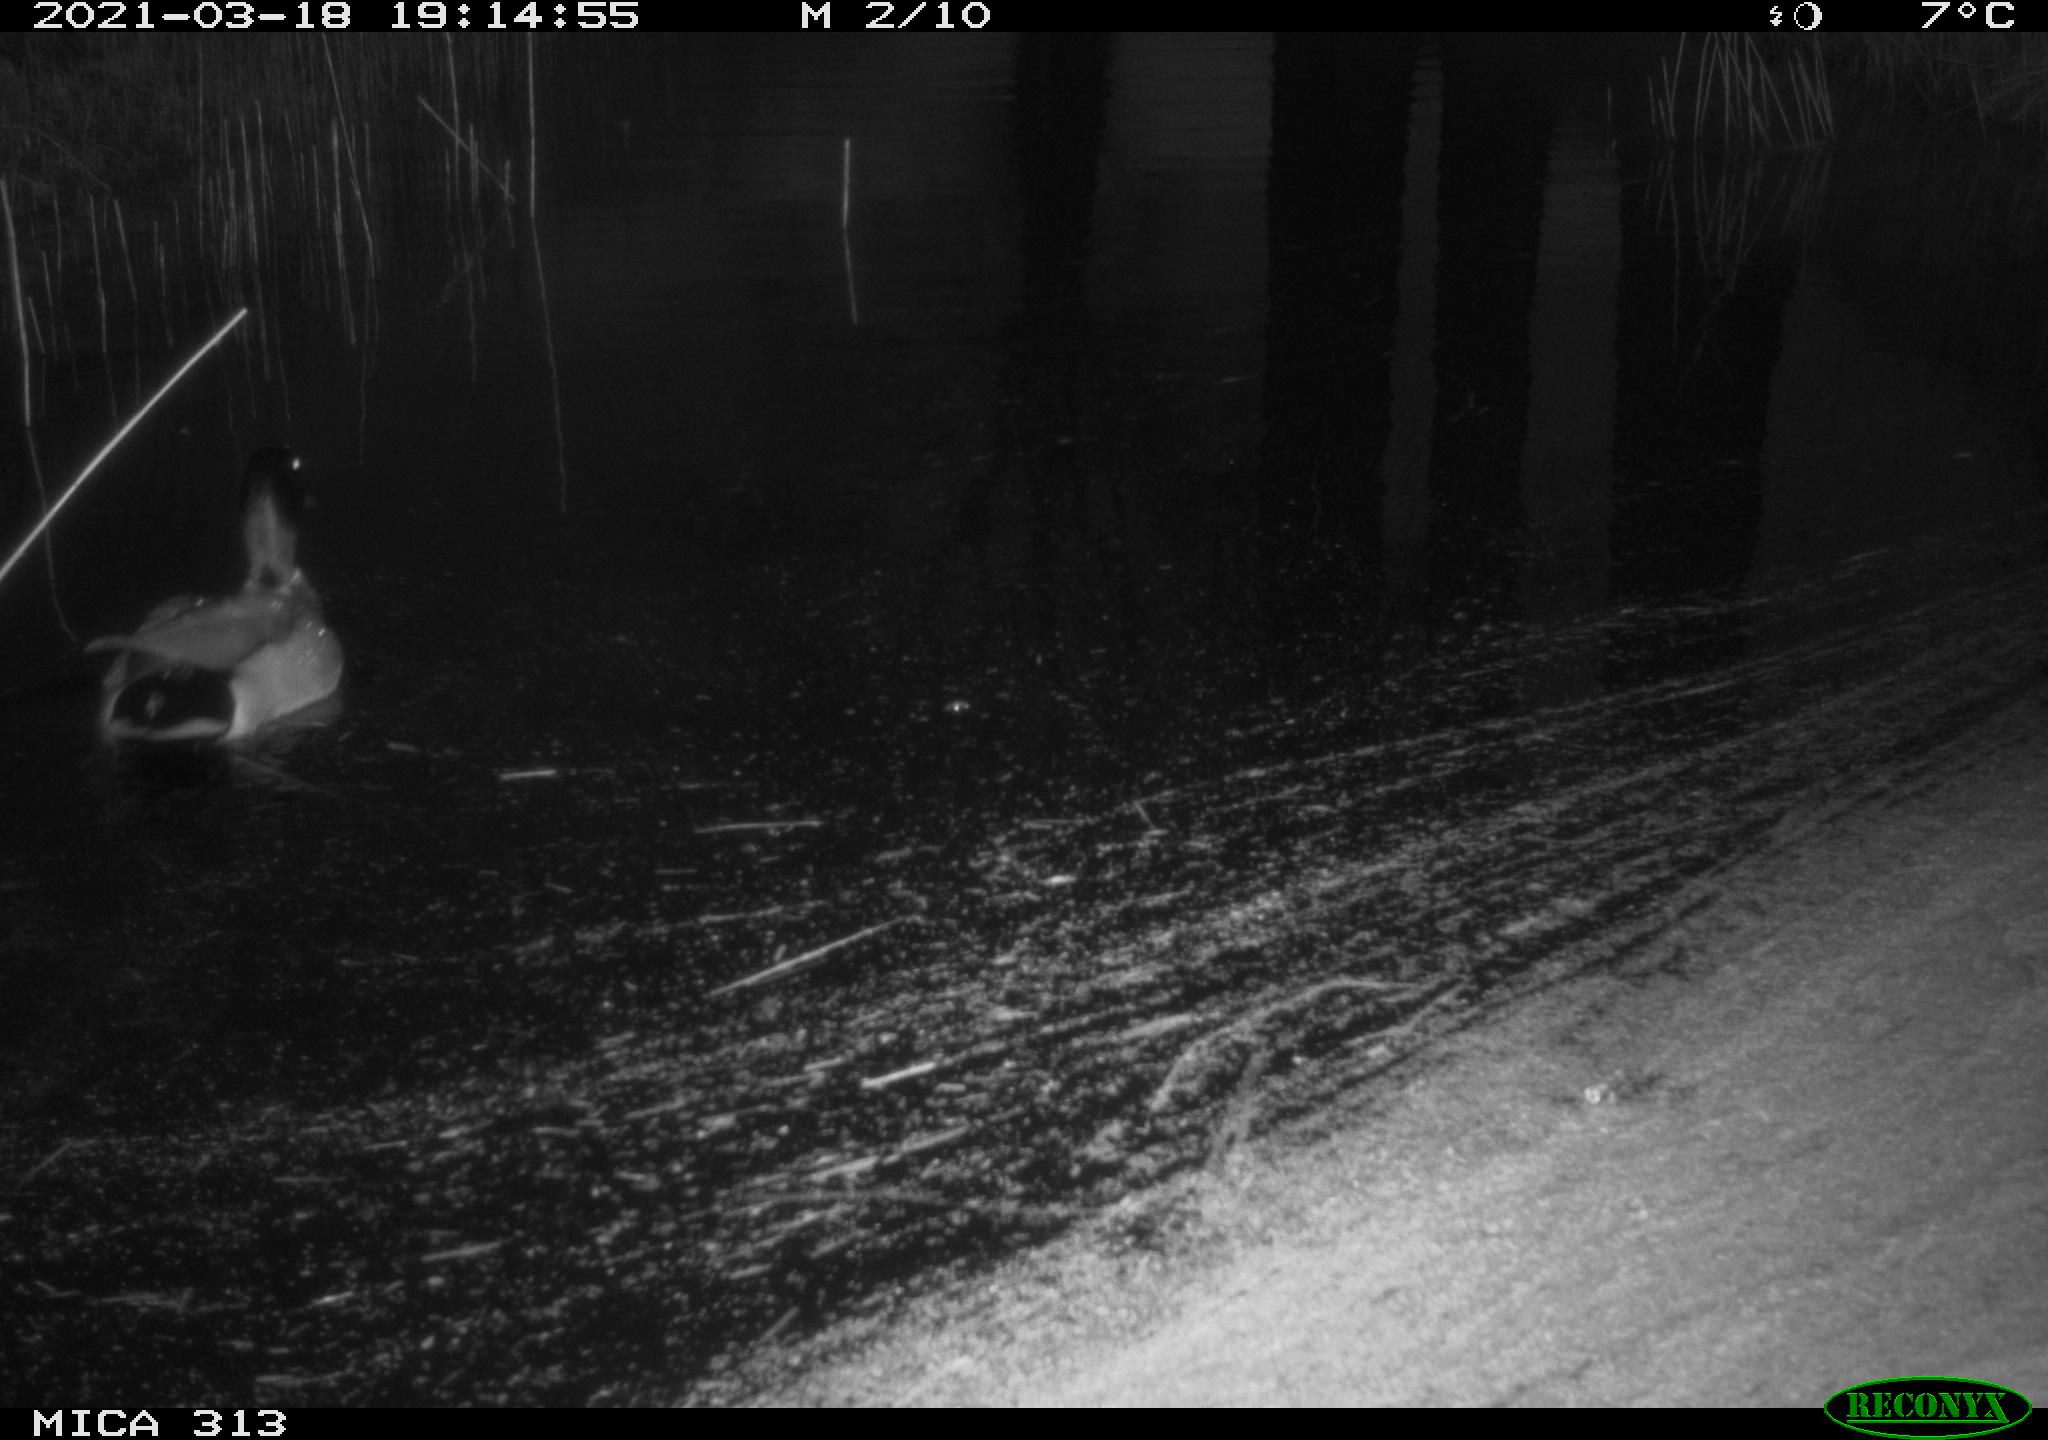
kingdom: Animalia
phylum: Chordata
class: Aves
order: Anseriformes
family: Anatidae
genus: Anas
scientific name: Anas platyrhynchos
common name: Mallard
